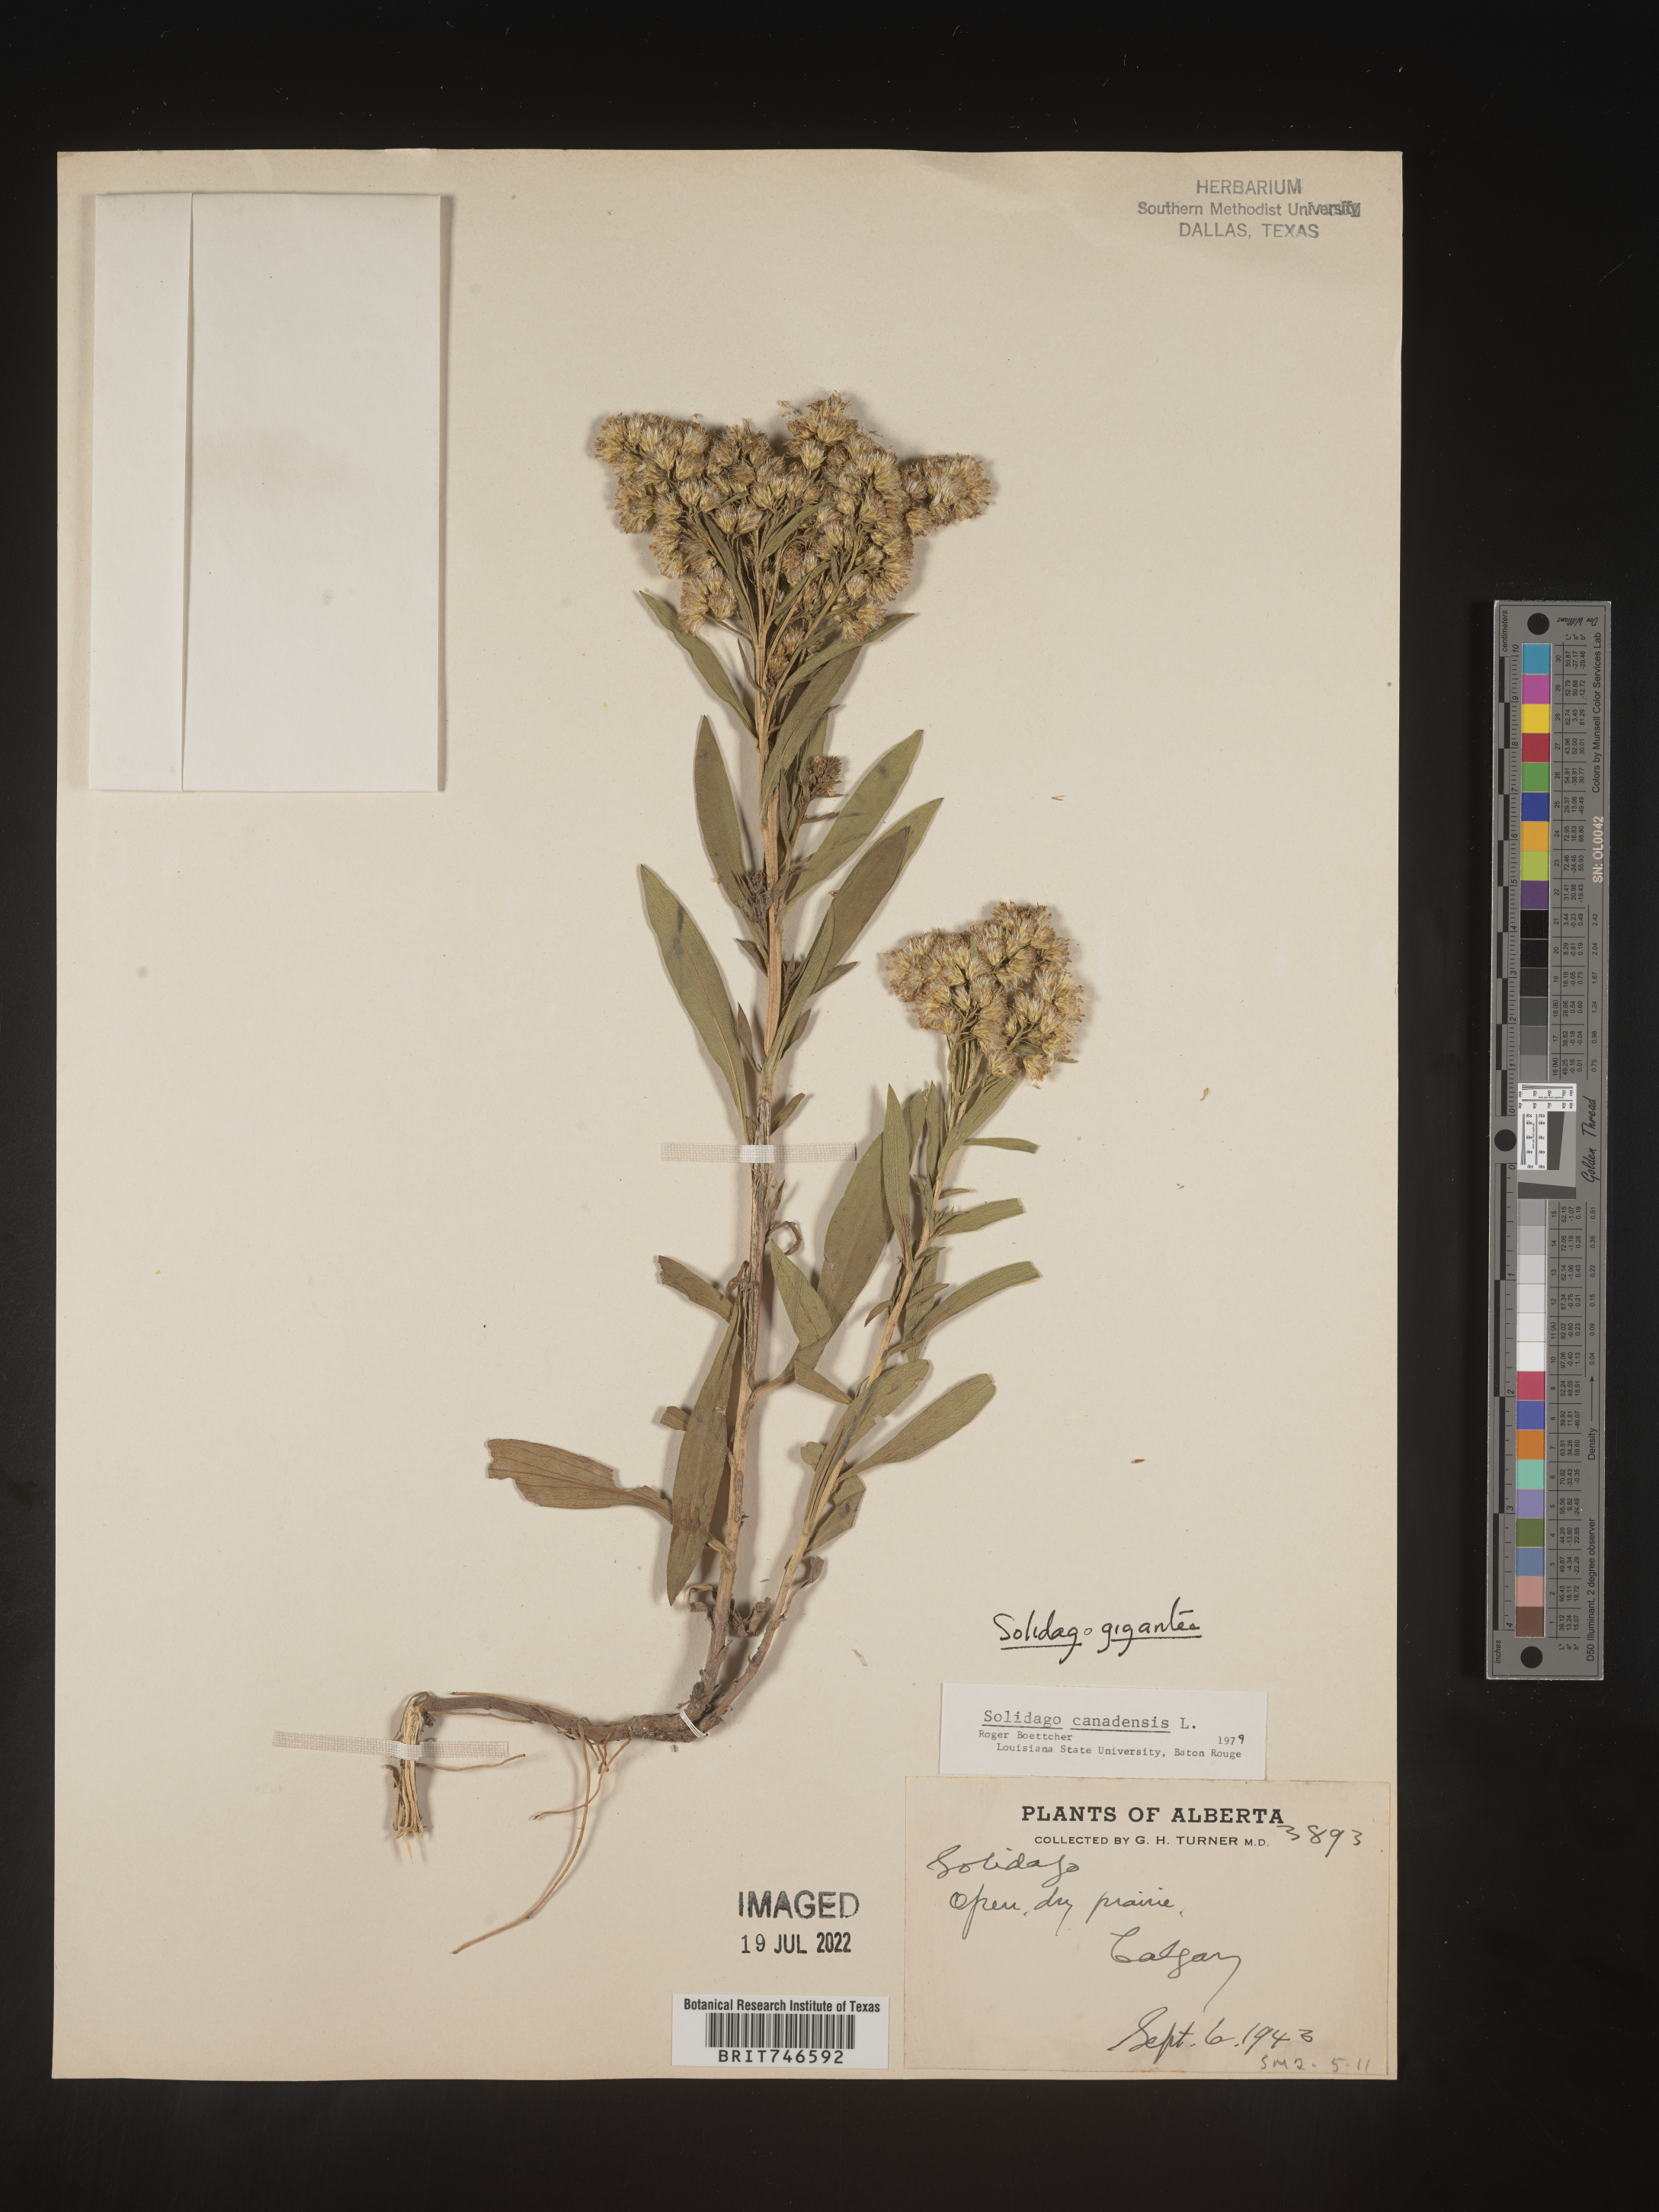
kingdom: Plantae
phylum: Tracheophyta
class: Magnoliopsida
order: Asterales
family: Asteraceae
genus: Solidago
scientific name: Solidago gigantea
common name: Giant goldenrod
